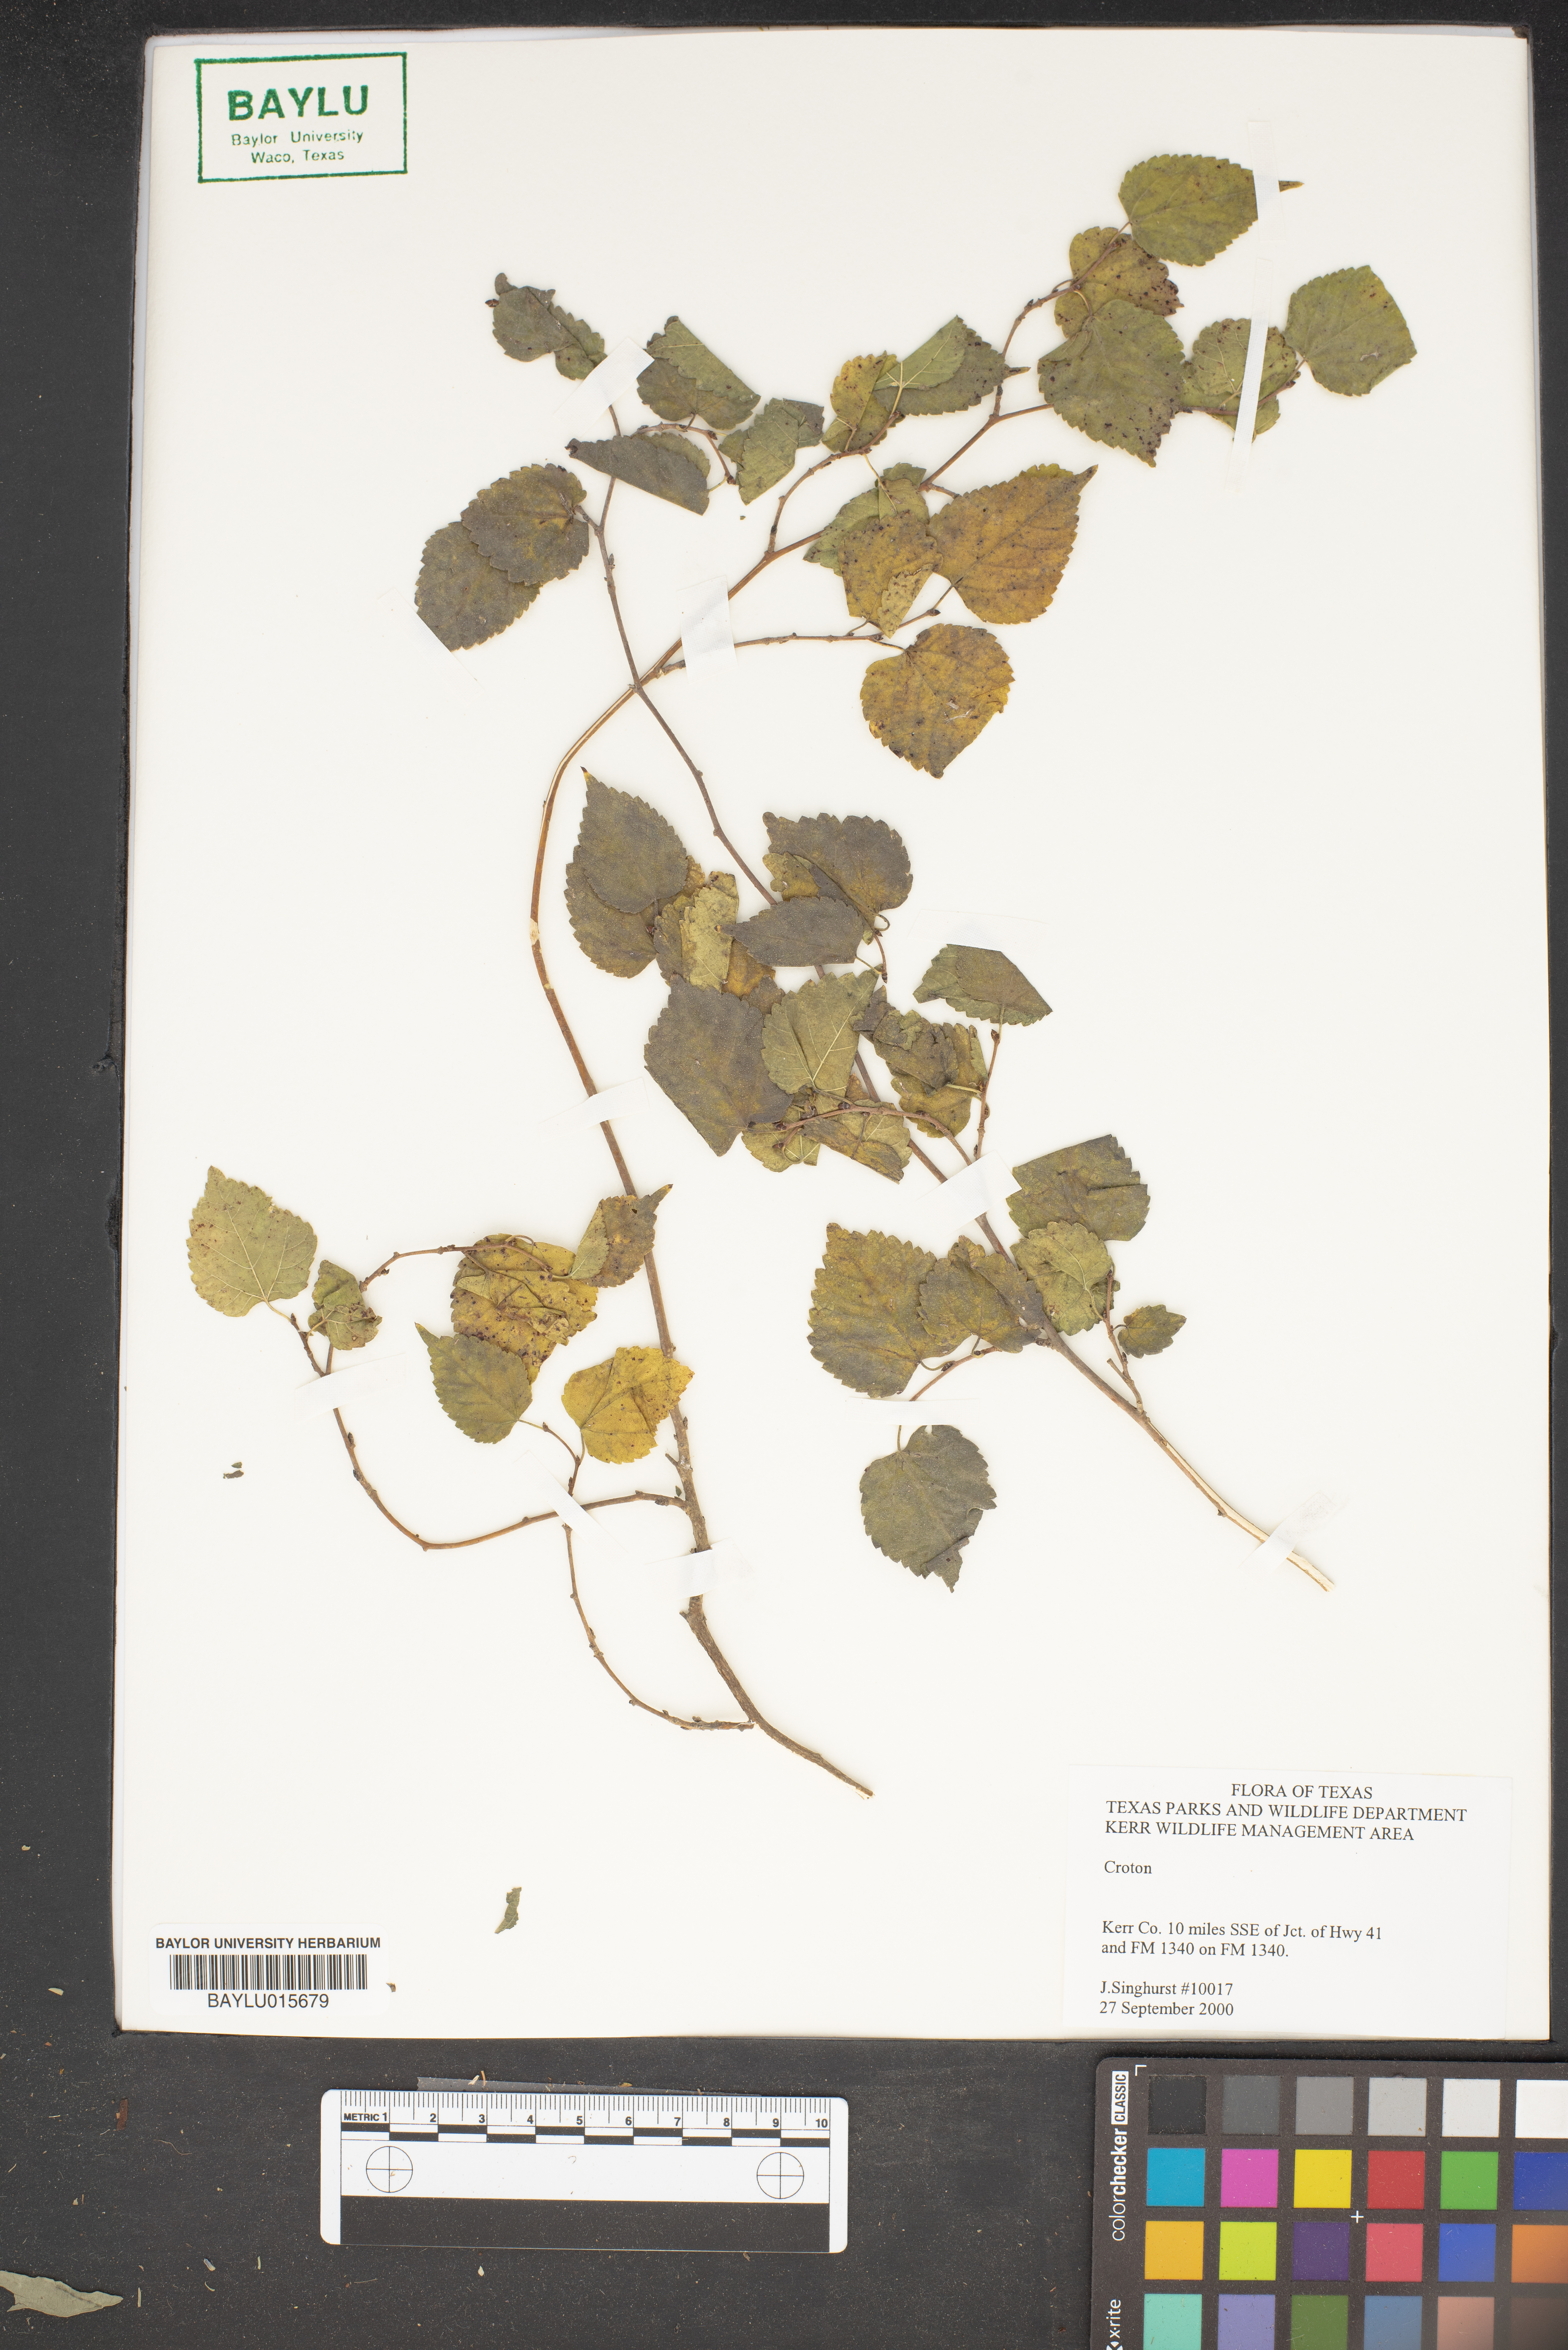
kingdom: Plantae
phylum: Tracheophyta
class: Magnoliopsida
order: Malpighiales
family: Euphorbiaceae
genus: Croton
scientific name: Croton
